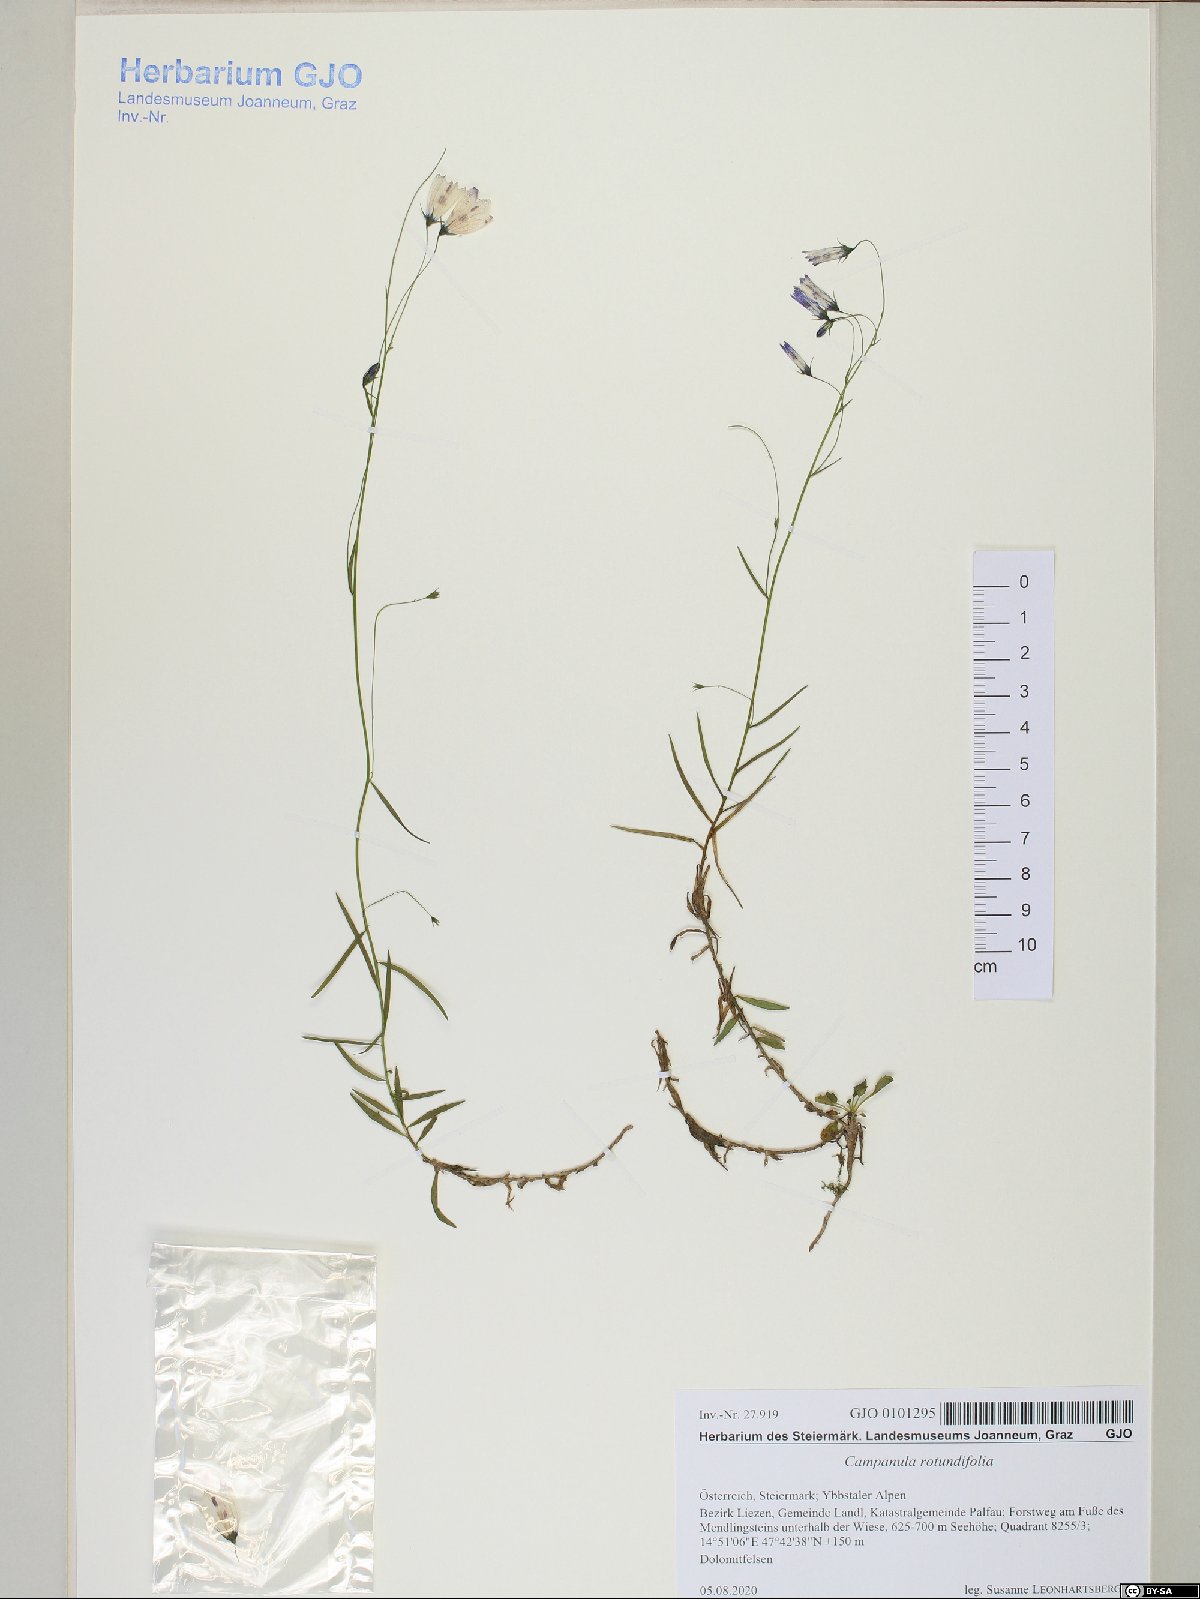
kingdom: Plantae
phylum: Tracheophyta
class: Magnoliopsida
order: Asterales
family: Campanulaceae
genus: Campanula
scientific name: Campanula rotundifolia
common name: Harebell
